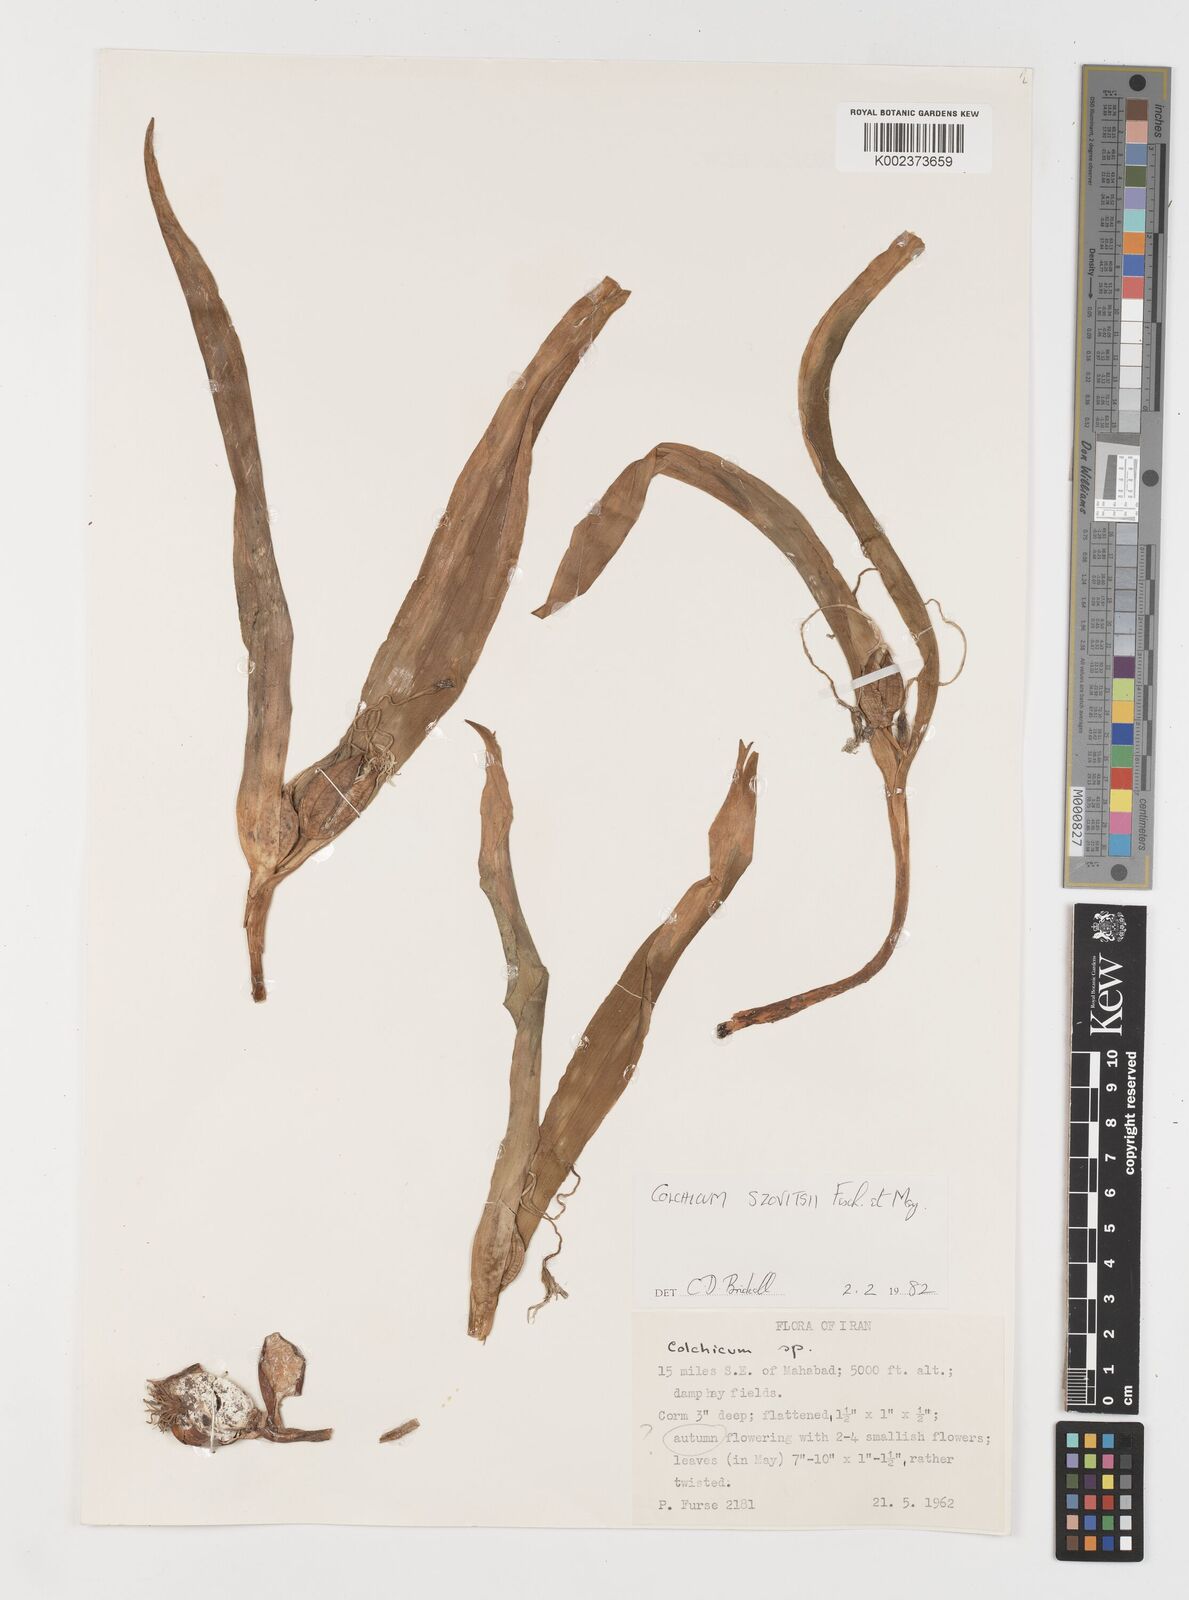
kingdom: Plantae
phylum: Tracheophyta
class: Liliopsida
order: Liliales
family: Colchicaceae
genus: Colchicum
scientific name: Colchicum szovitsii
